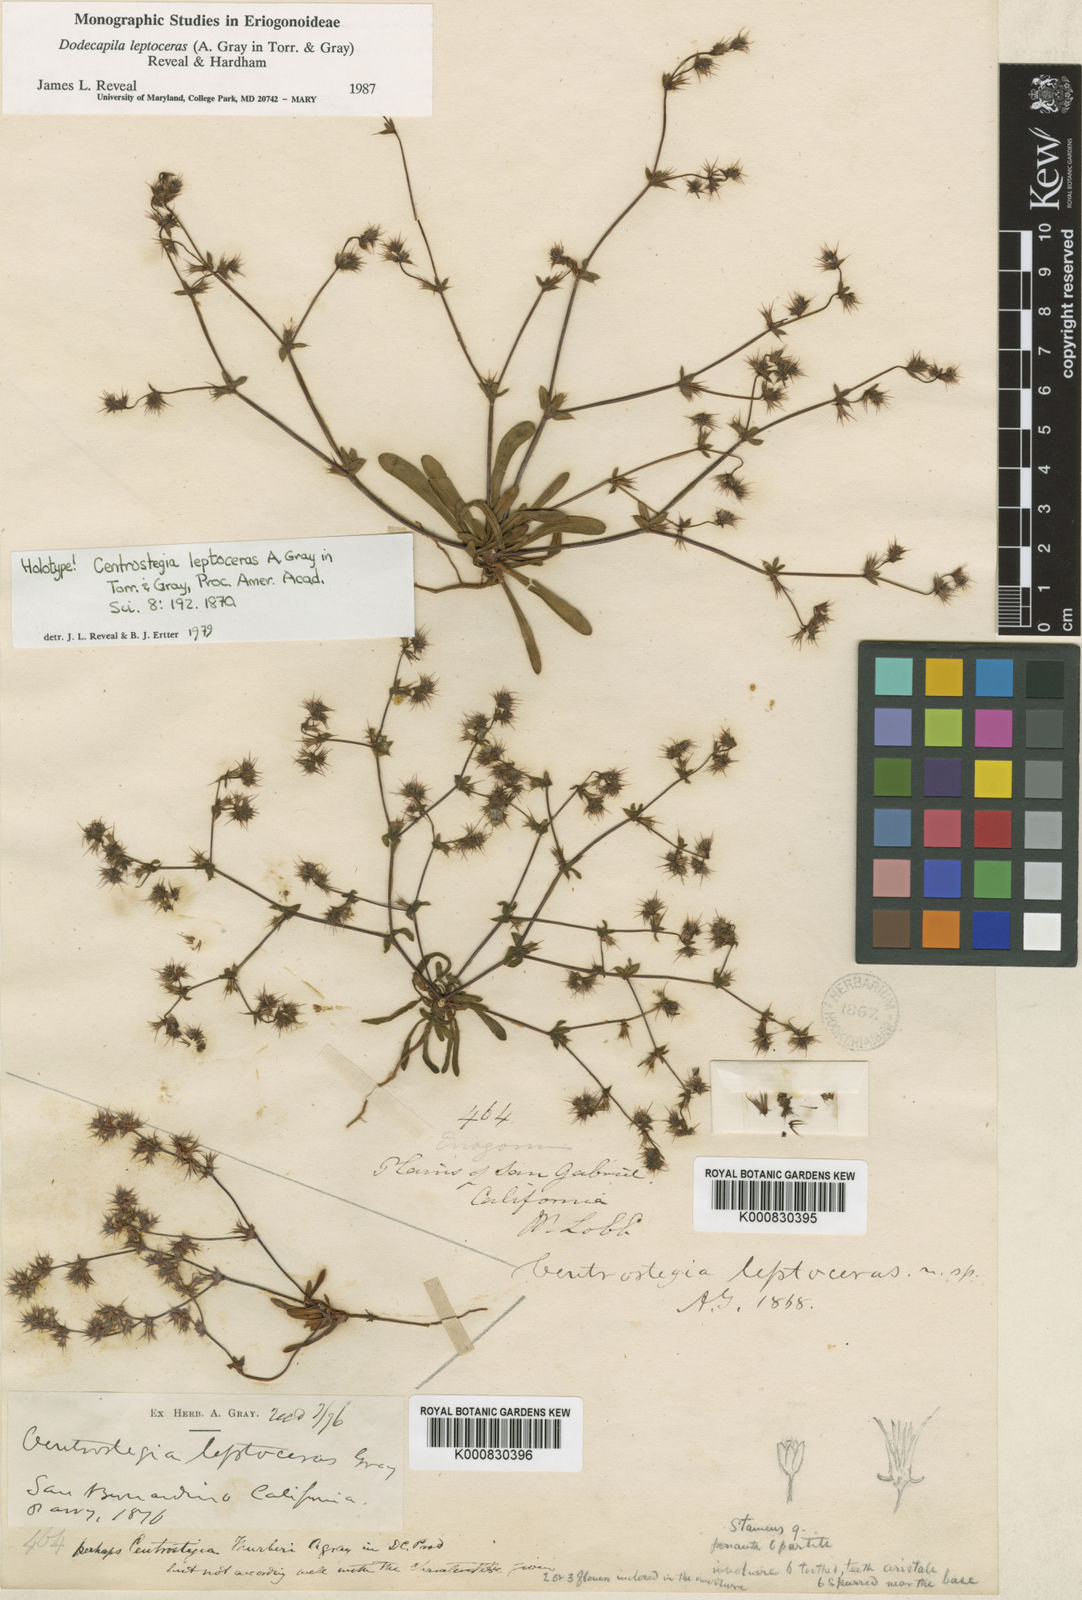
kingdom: Plantae
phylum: Tracheophyta
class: Magnoliopsida
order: Caryophyllales
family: Polygonaceae
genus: Dodecahema
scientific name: Dodecahema leptoceras
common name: Slender-horn spinyherb
